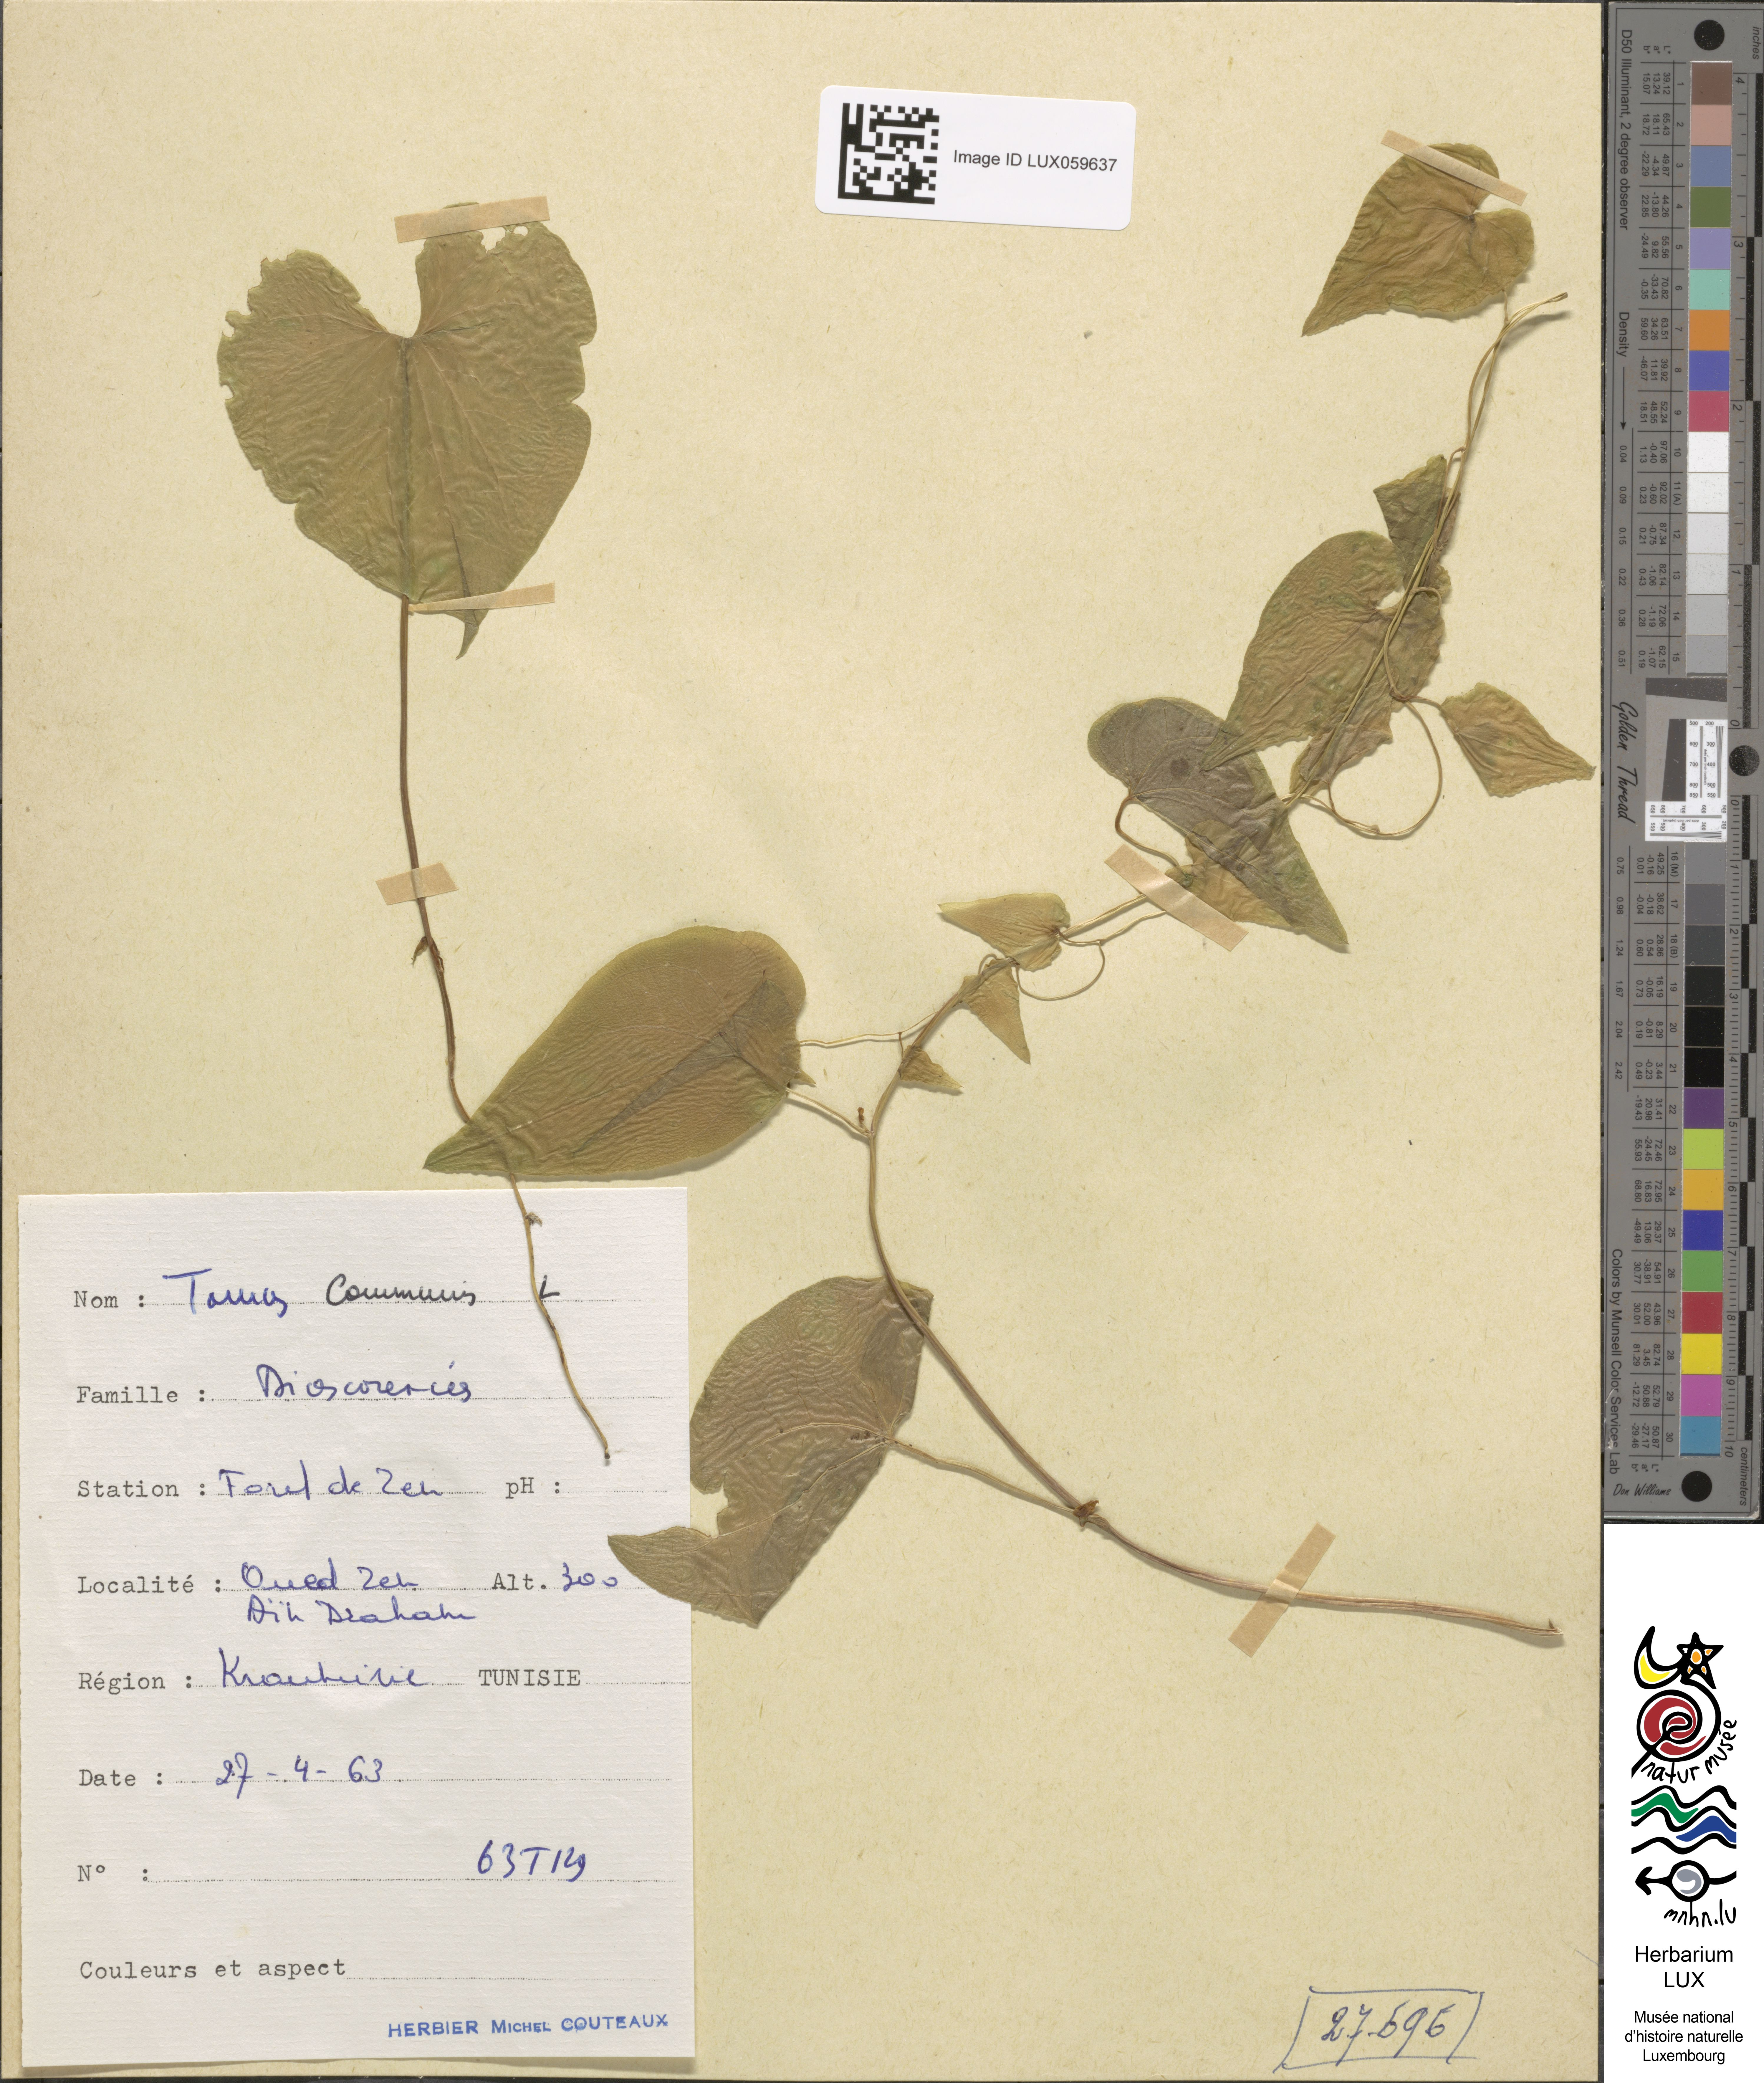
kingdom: Plantae
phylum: Tracheophyta
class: Liliopsida
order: Dioscoreales
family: Dioscoreaceae
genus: Dioscorea
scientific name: Dioscorea communis
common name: Black-bindweed
